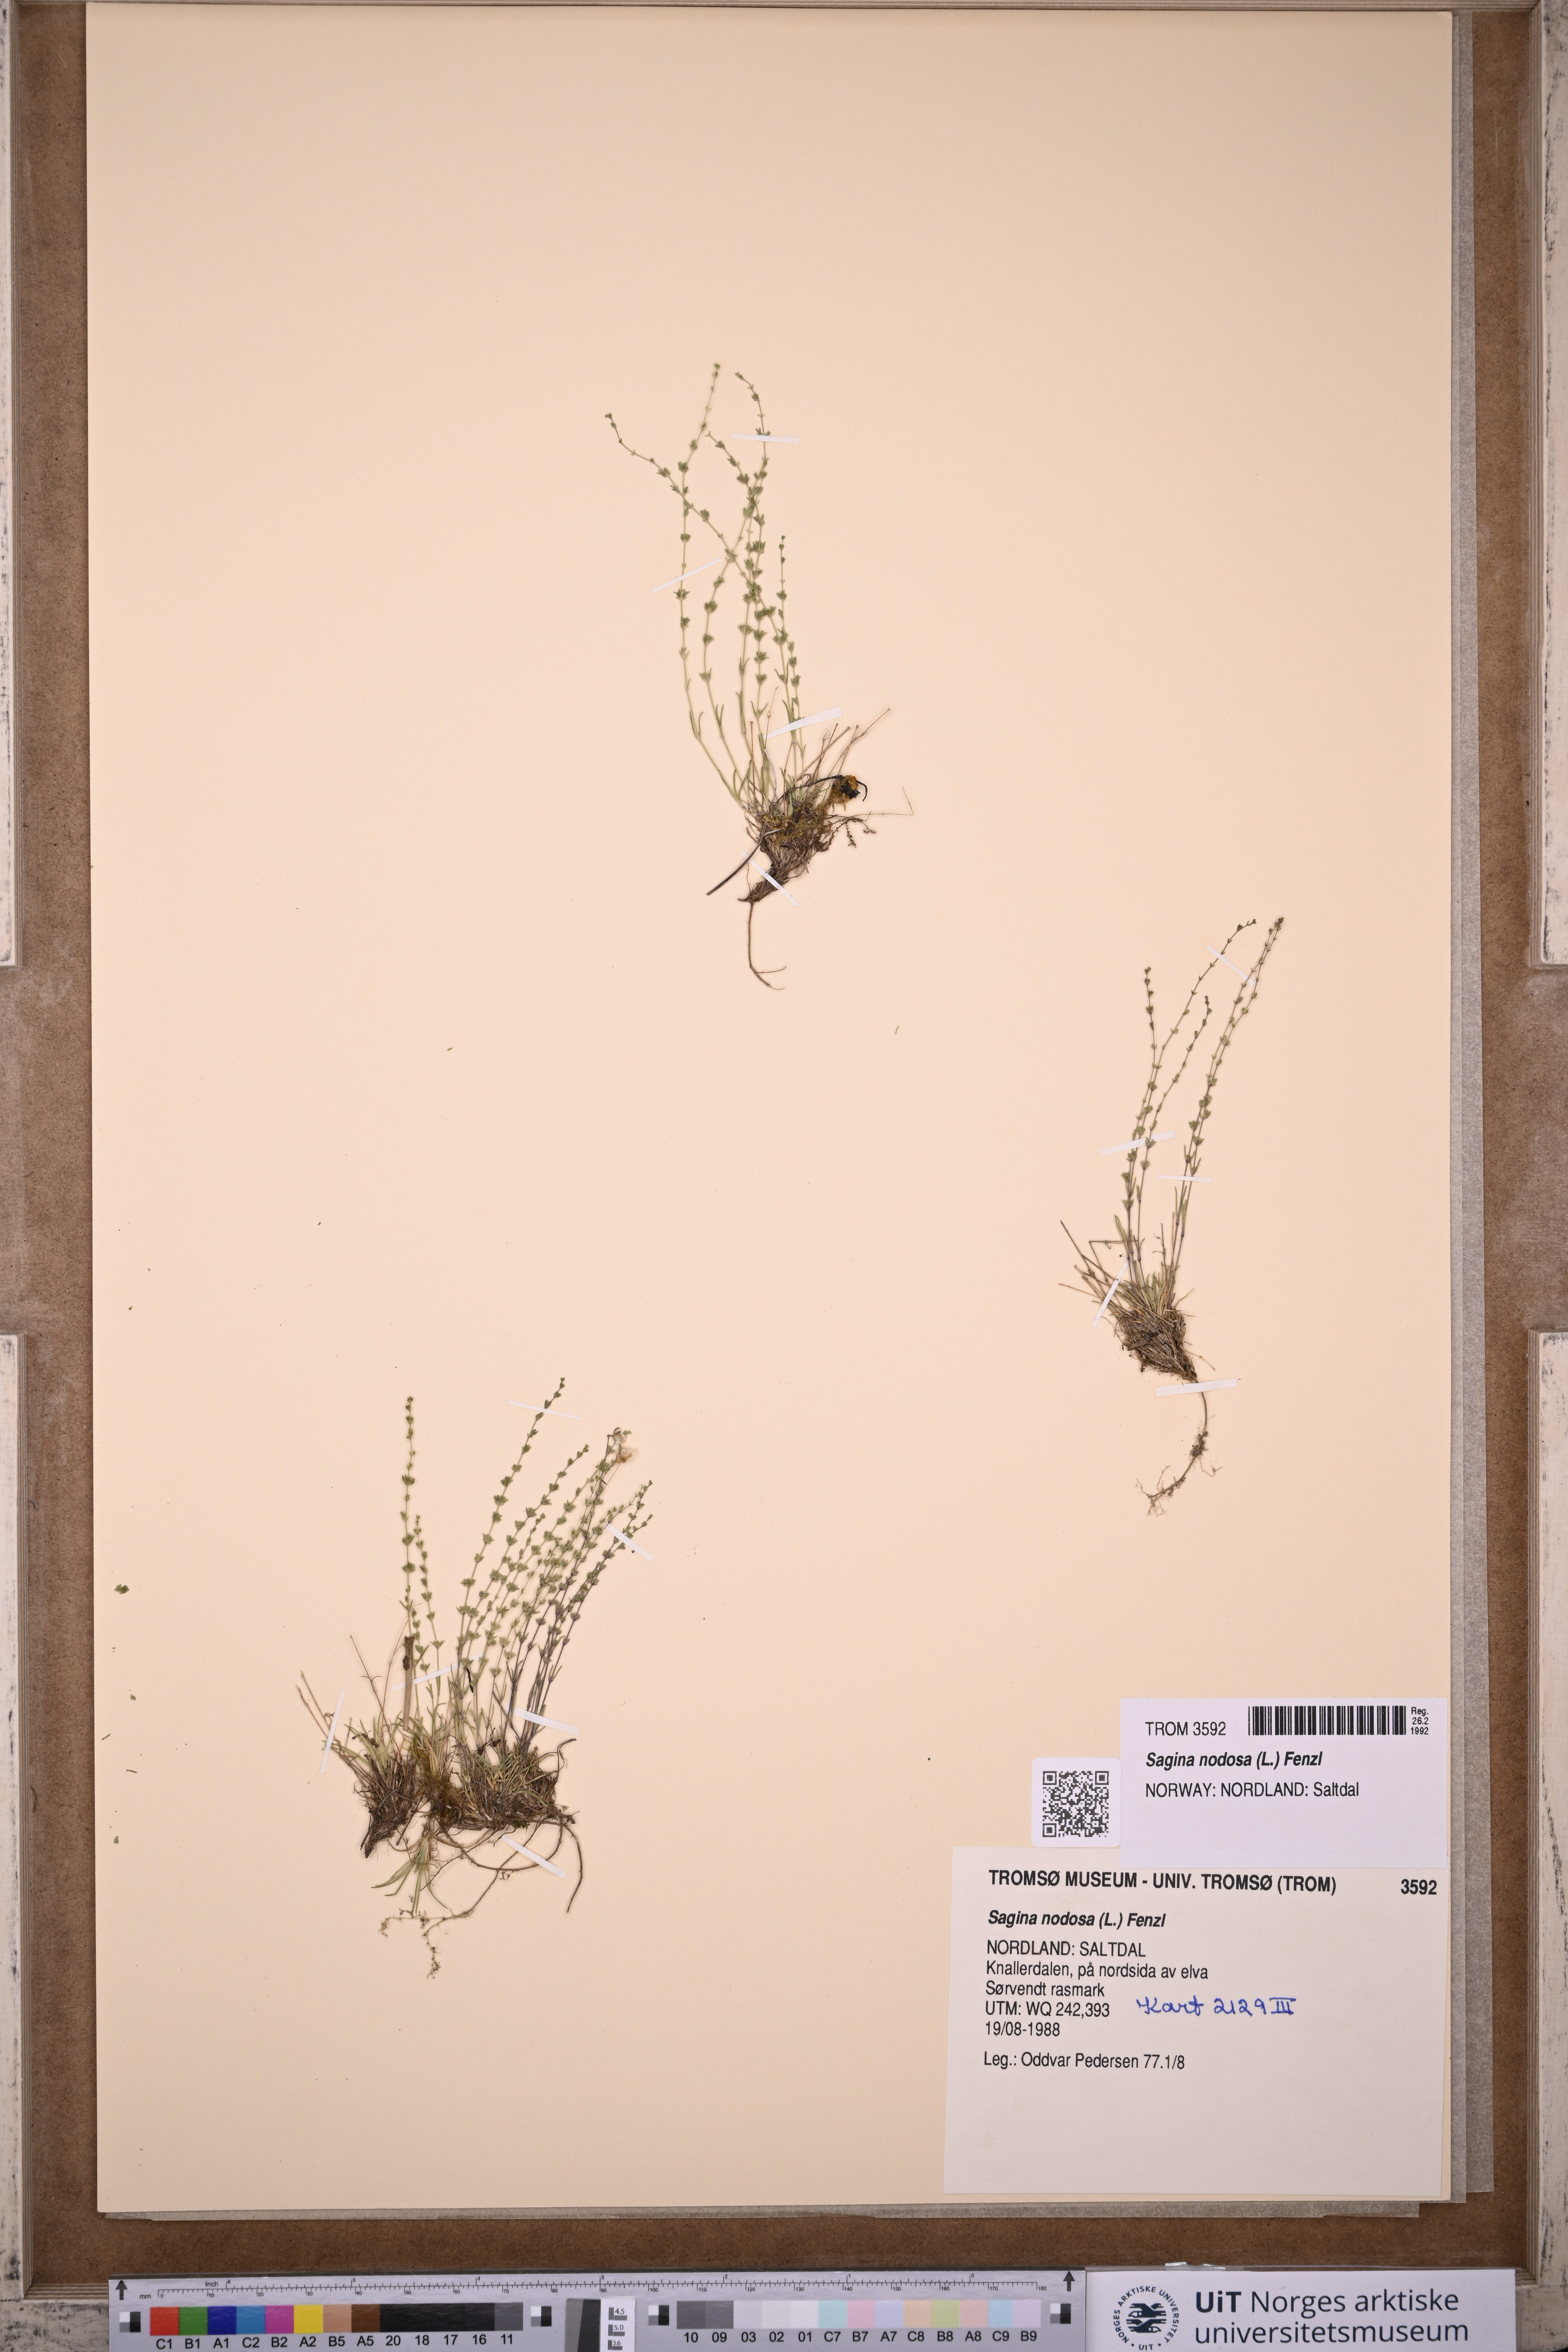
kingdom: Plantae
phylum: Tracheophyta
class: Magnoliopsida
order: Caryophyllales
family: Caryophyllaceae
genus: Sagina
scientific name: Sagina nodosa
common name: Knotted pearlwort
